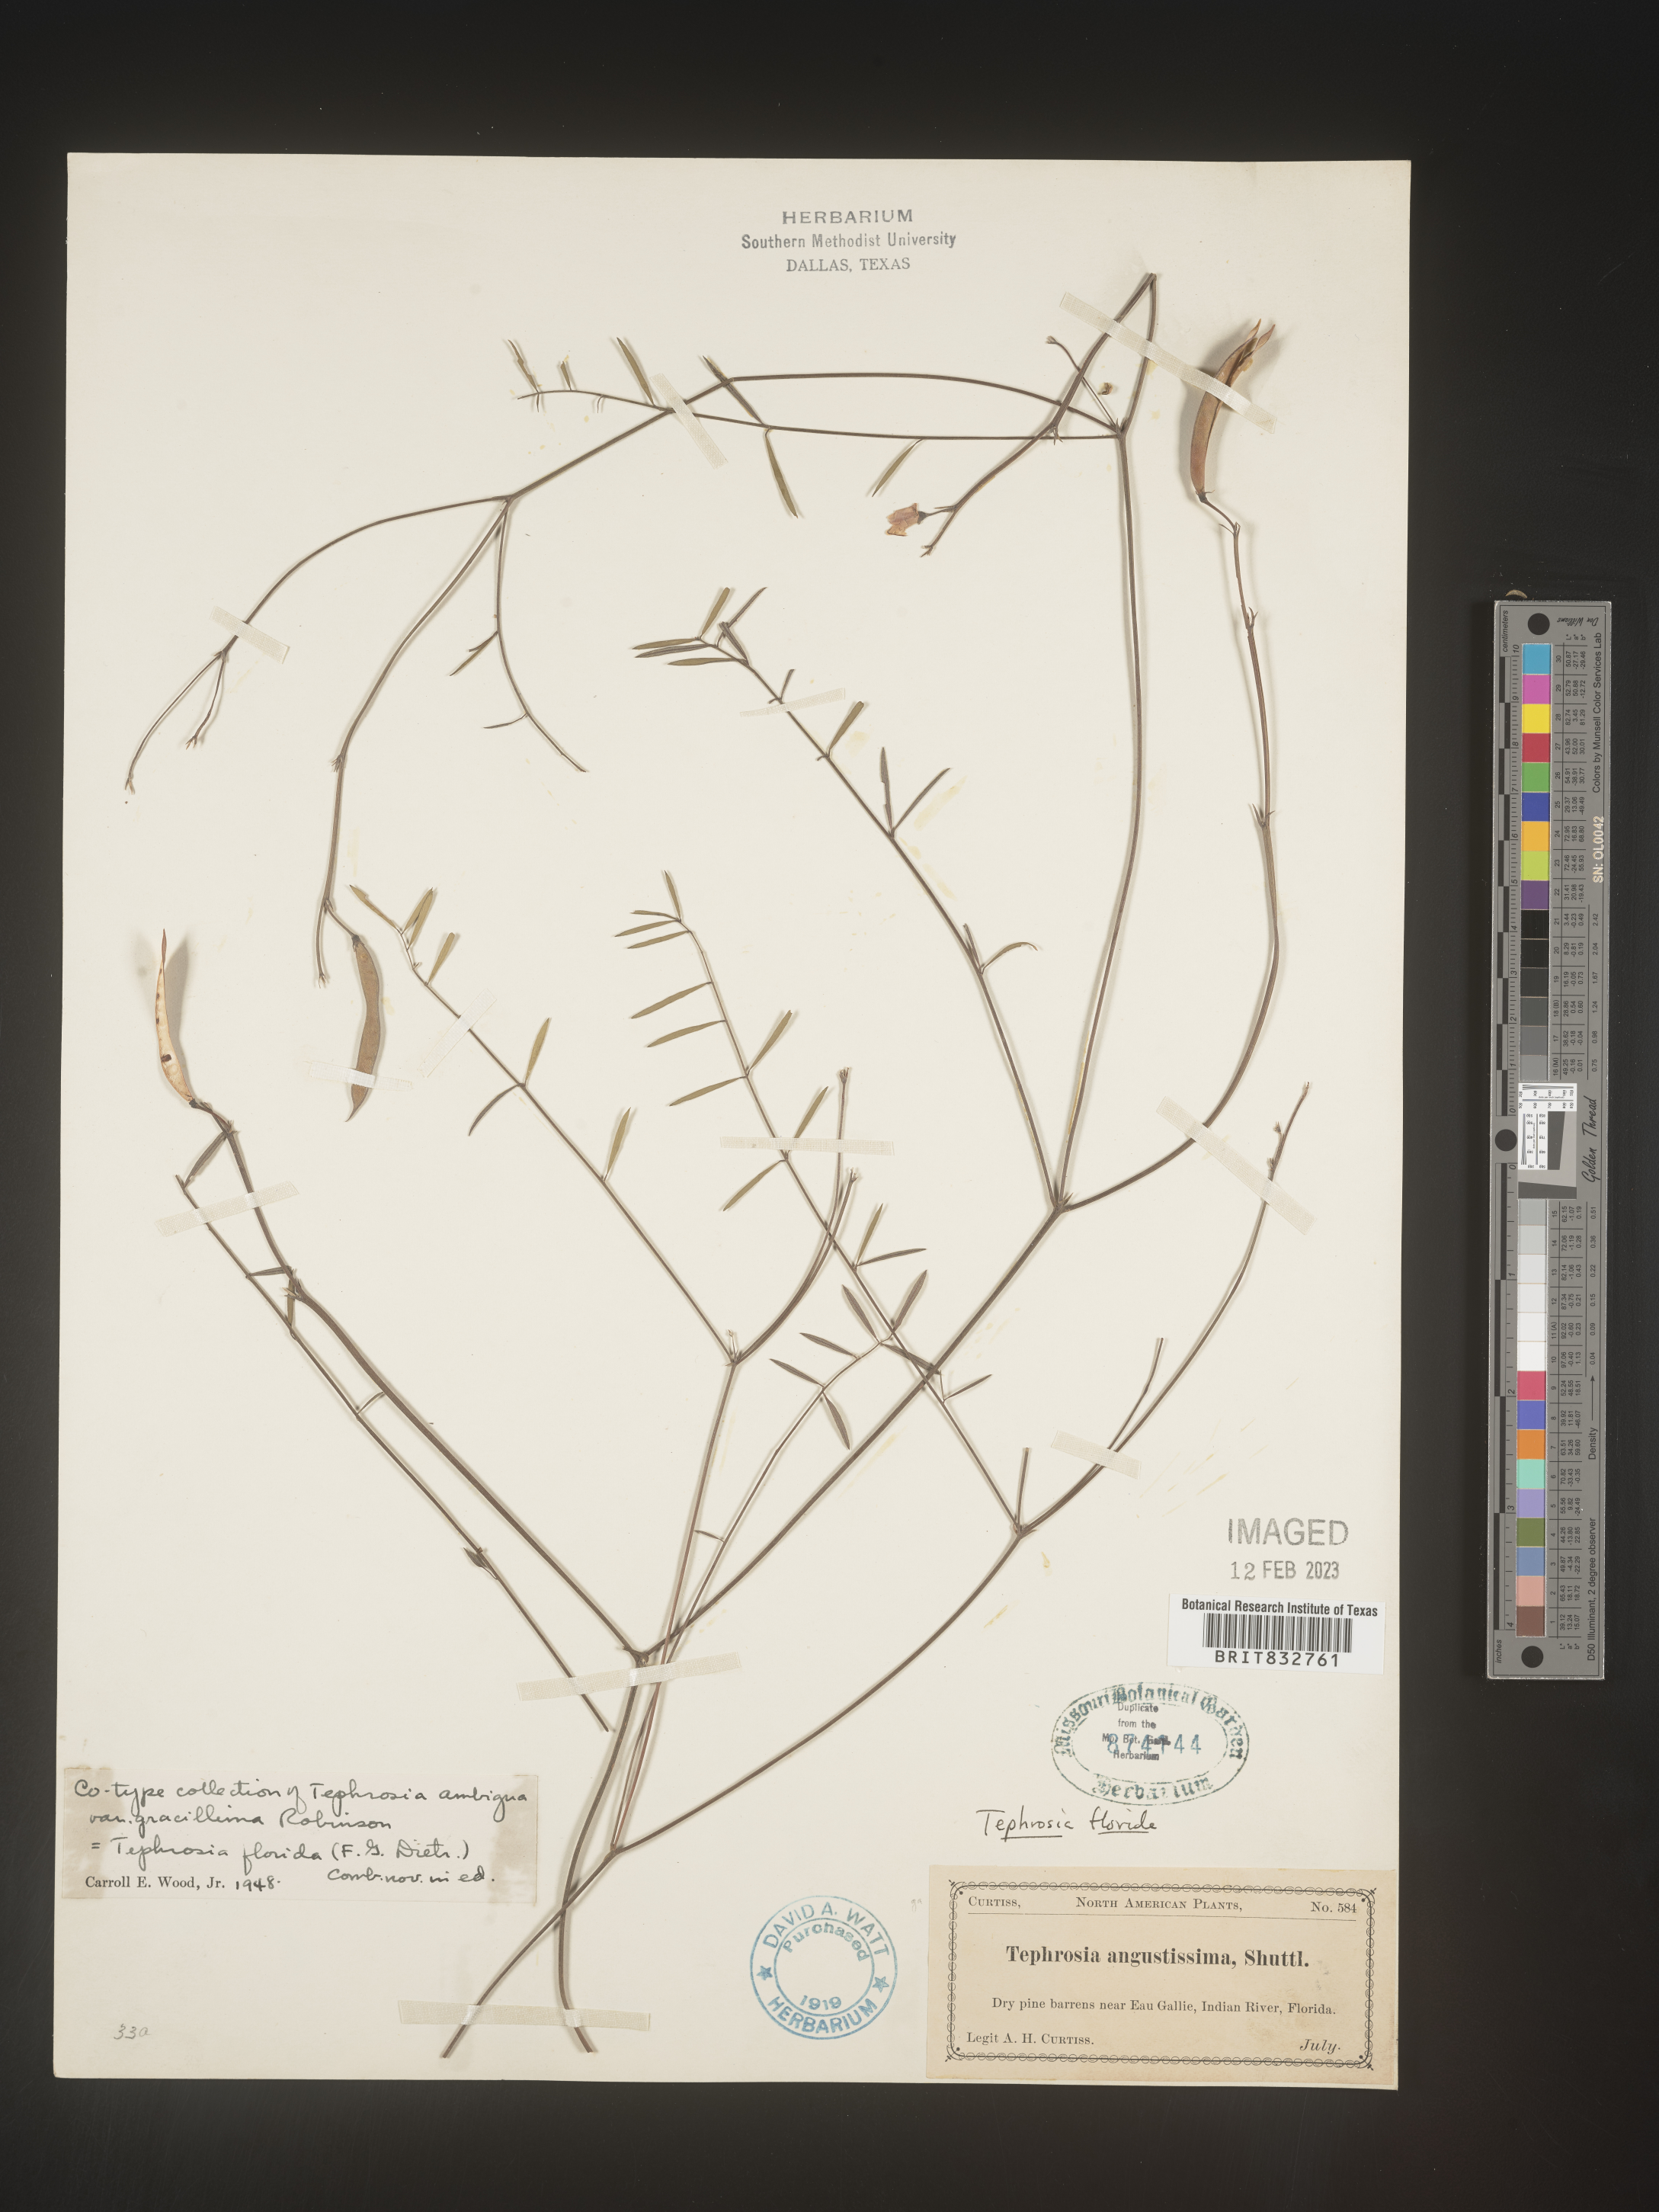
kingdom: Plantae
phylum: Tracheophyta
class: Magnoliopsida
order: Fabales
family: Fabaceae
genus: Tephrosia
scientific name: Tephrosia florida
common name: Florida hoary-pea
